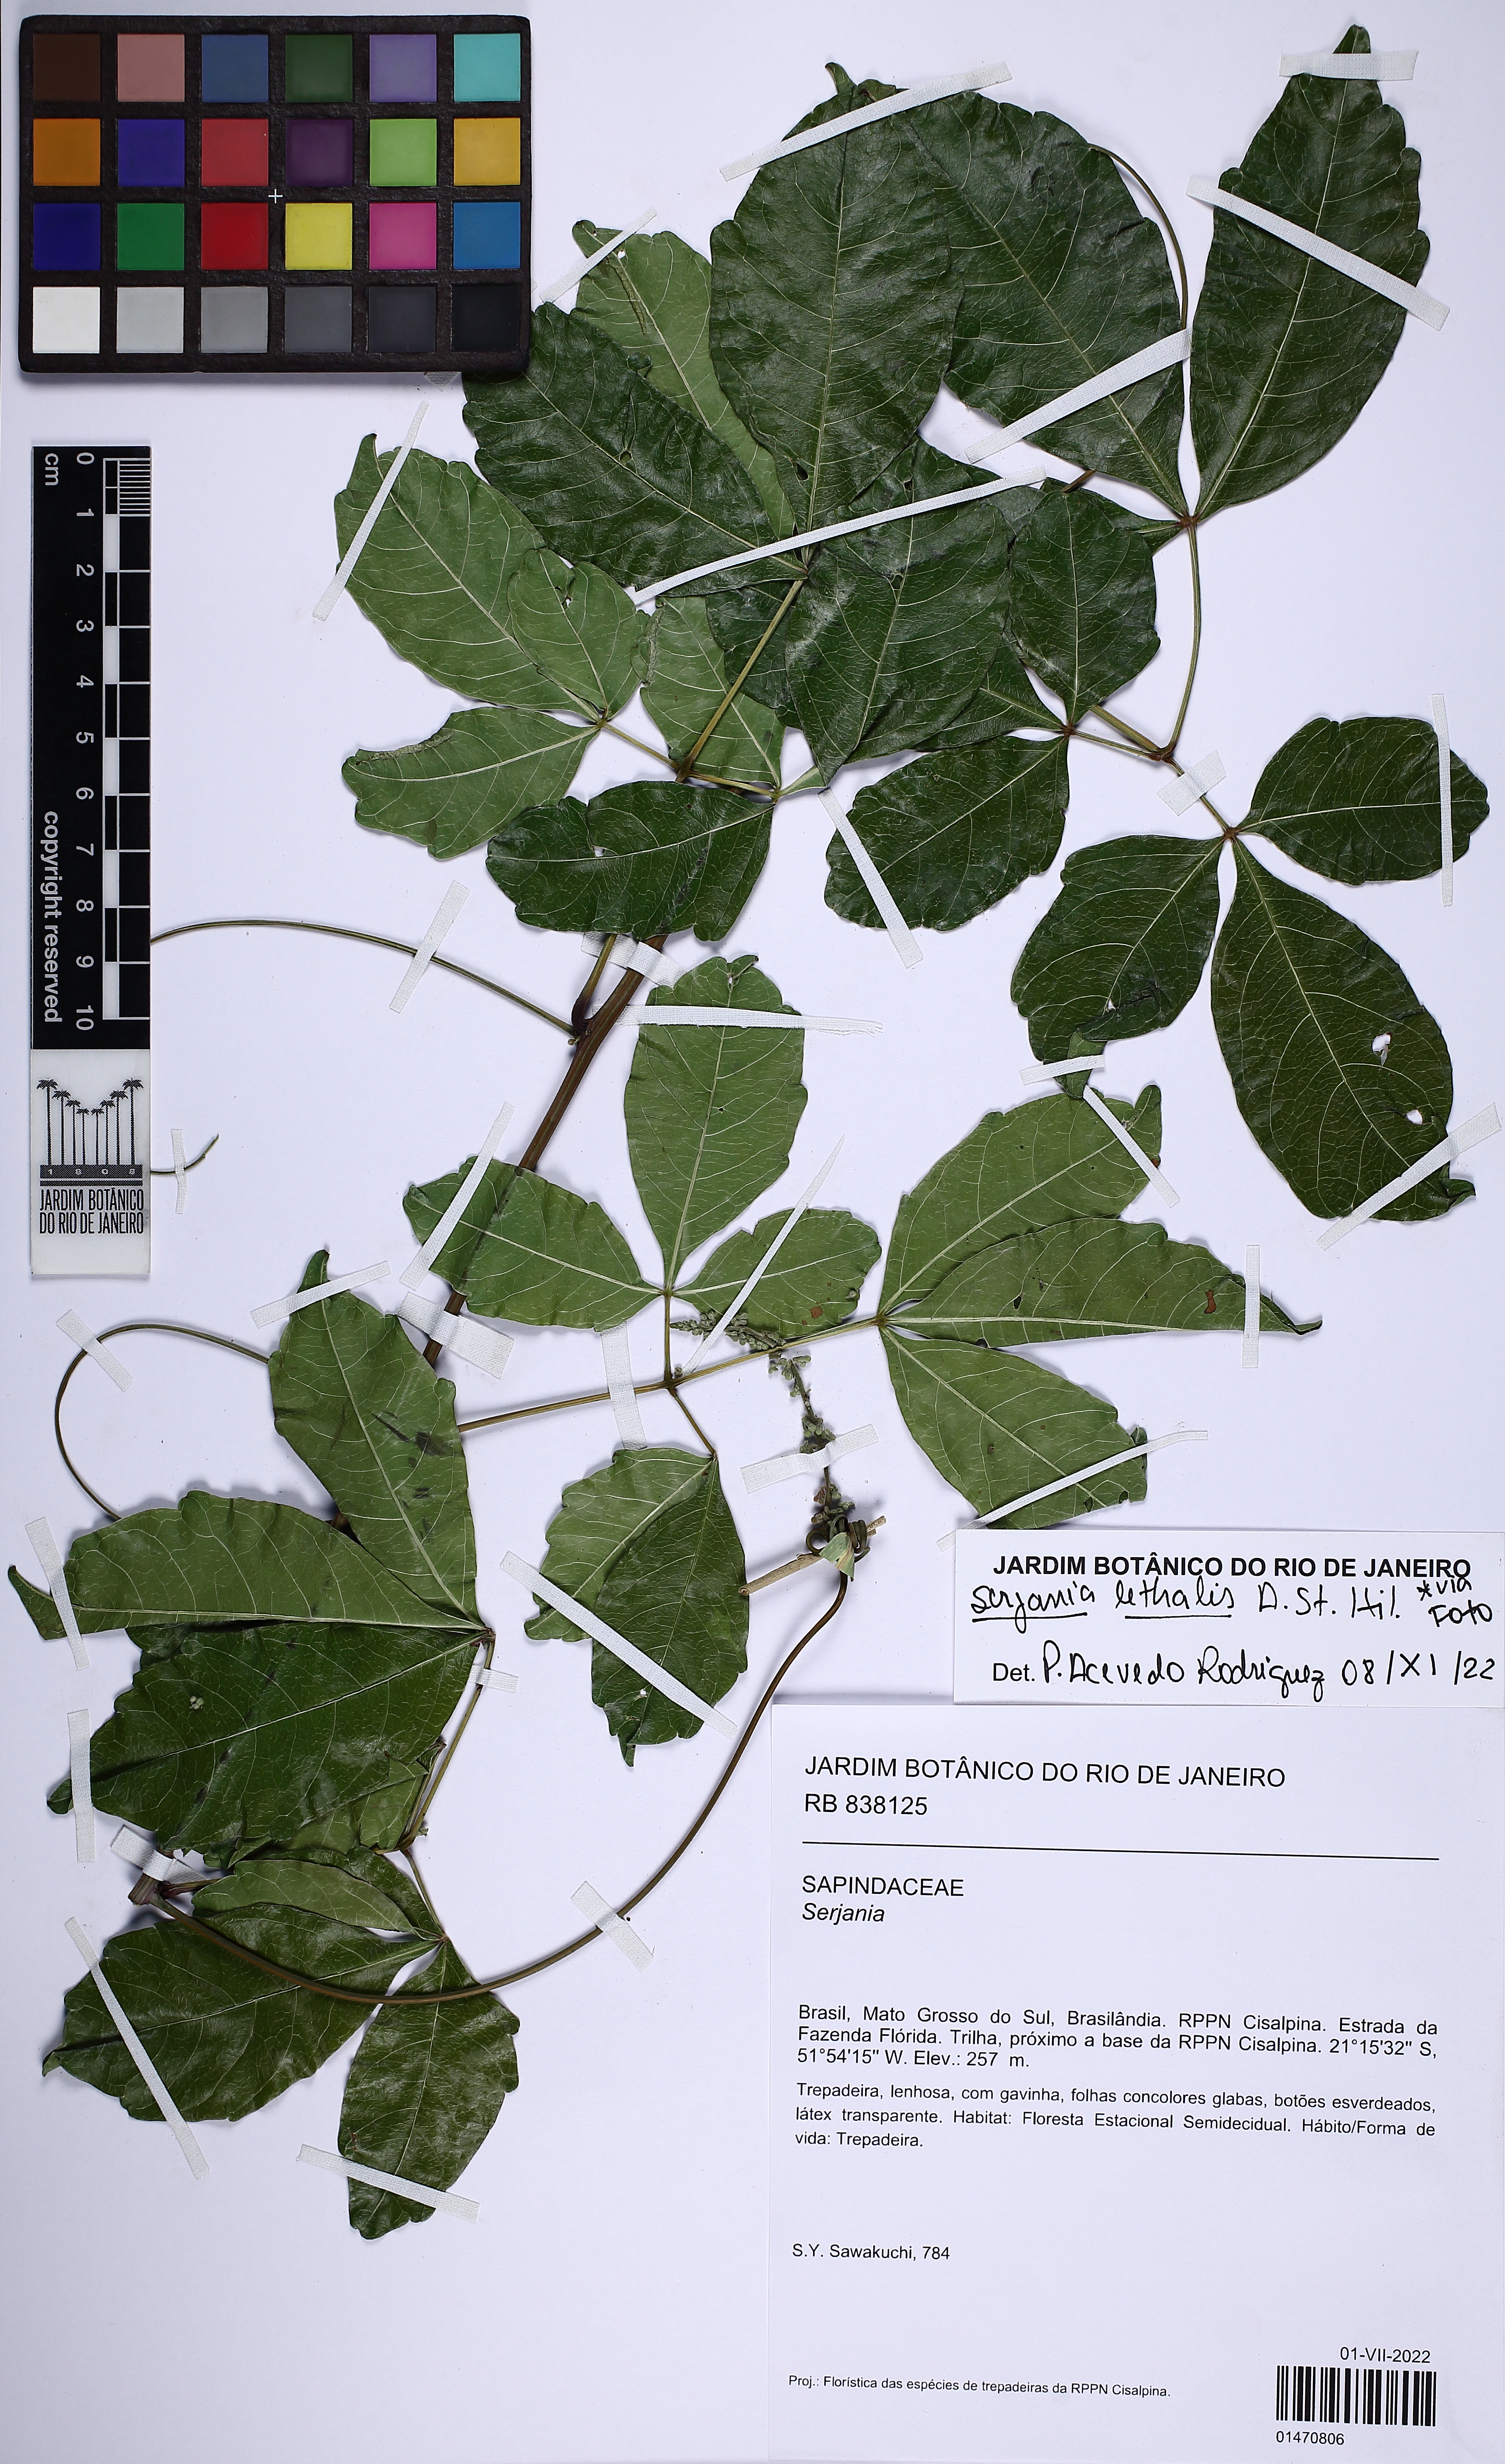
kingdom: Plantae
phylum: Tracheophyta
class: Magnoliopsida
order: Sapindales
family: Sapindaceae
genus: Serjania
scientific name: Serjania lethalis
